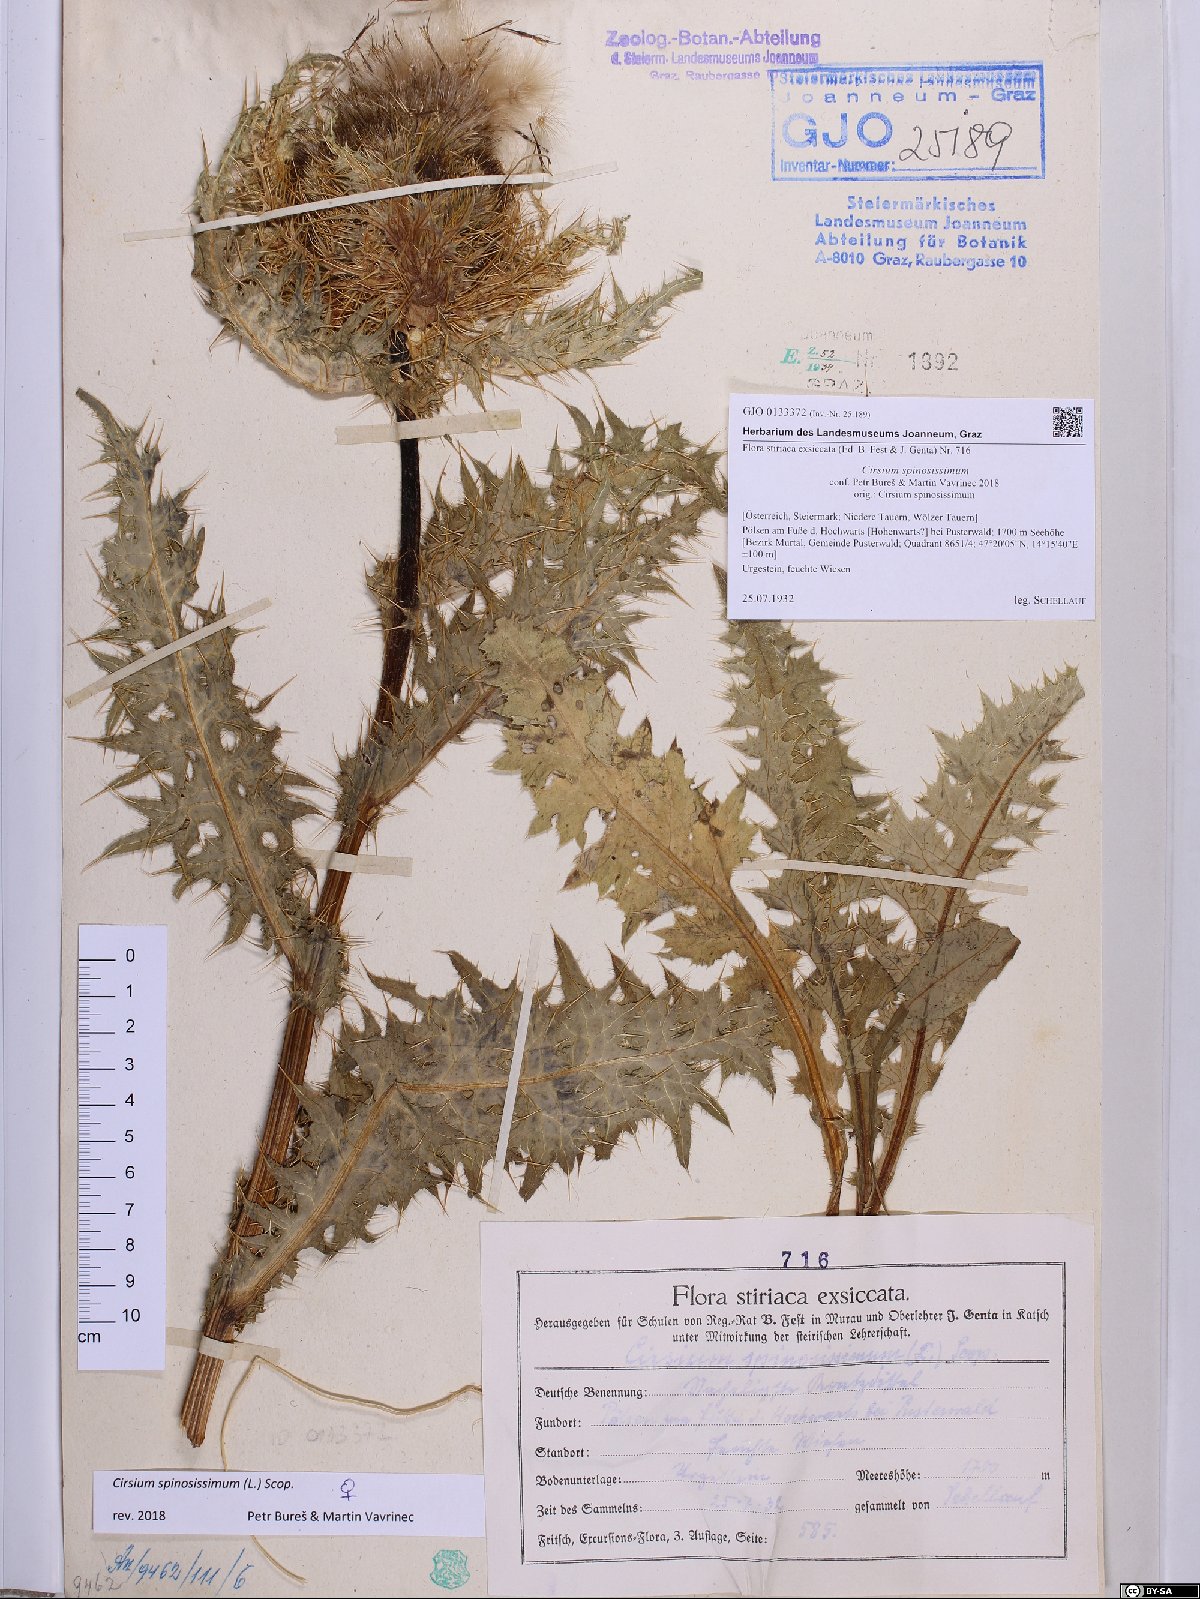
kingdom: Plantae
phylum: Tracheophyta
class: Magnoliopsida
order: Asterales
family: Asteraceae
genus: Cirsium
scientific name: Cirsium spinosissimum
